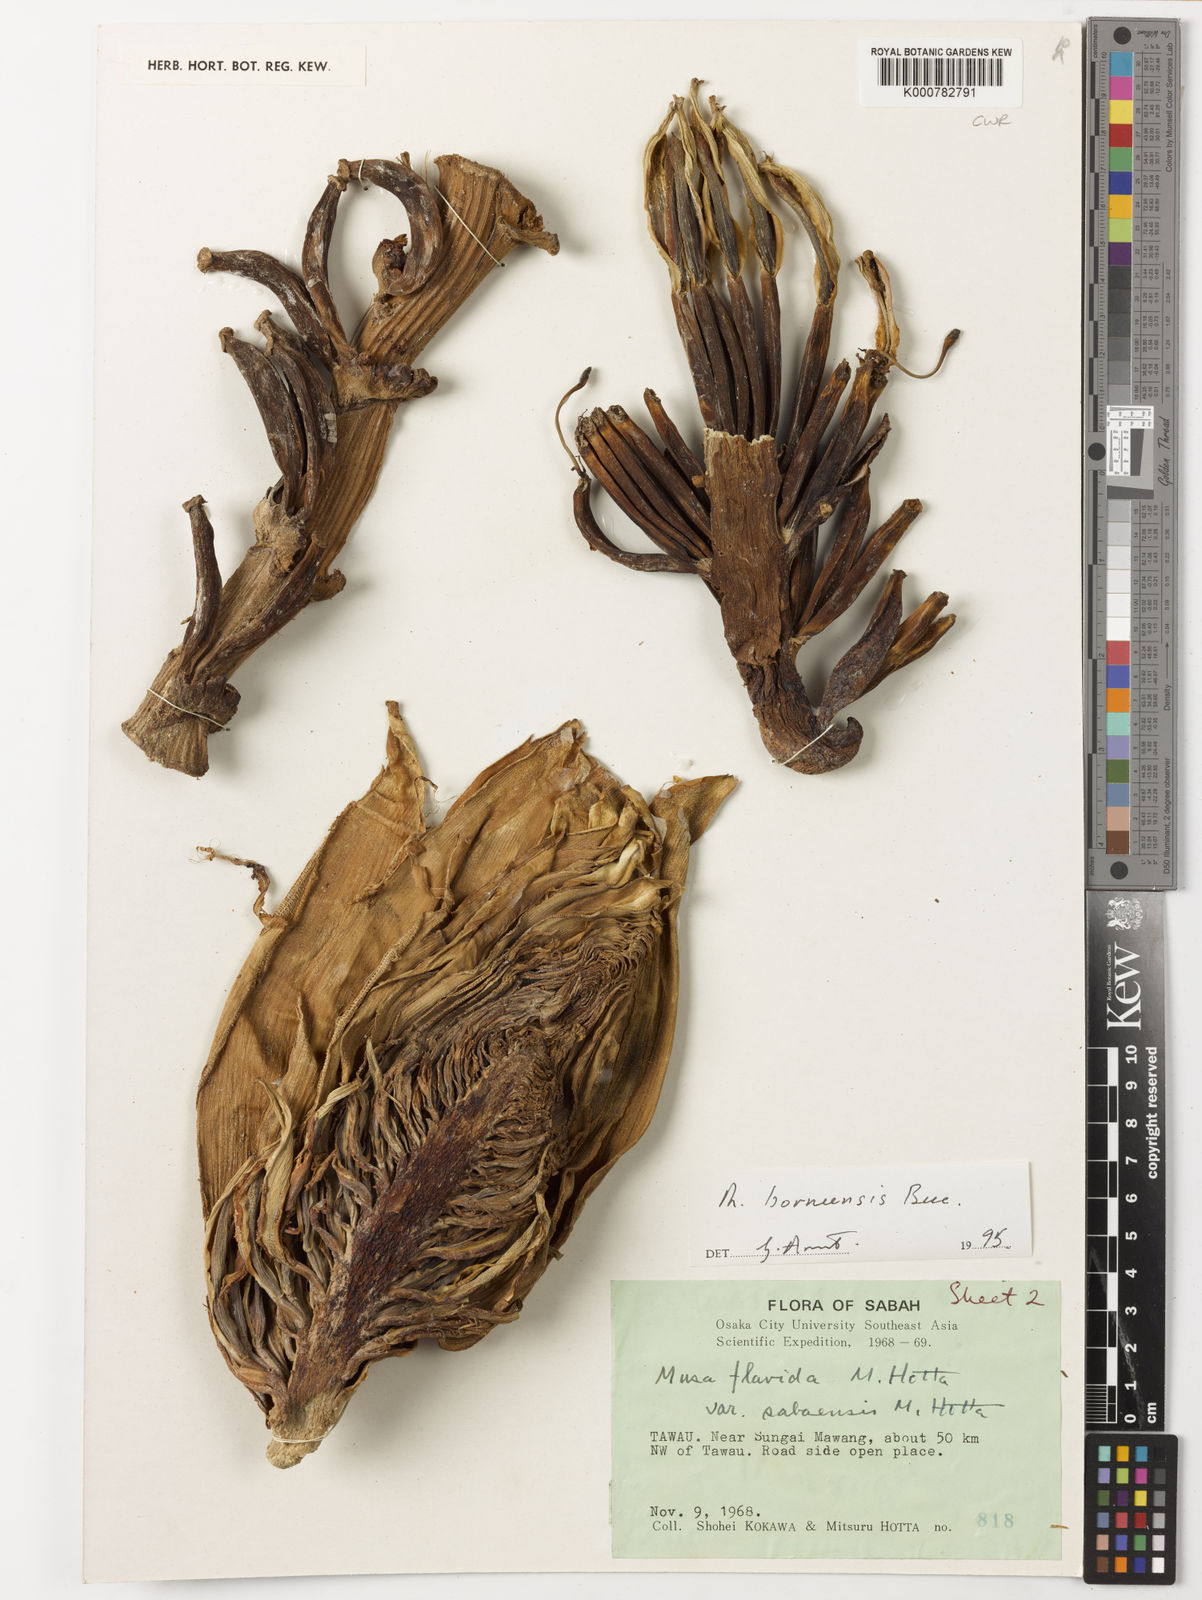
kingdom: Plantae
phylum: Tracheophyta
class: Liliopsida
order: Zingiberales
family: Musaceae
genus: Musa
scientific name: Musa borneensis
